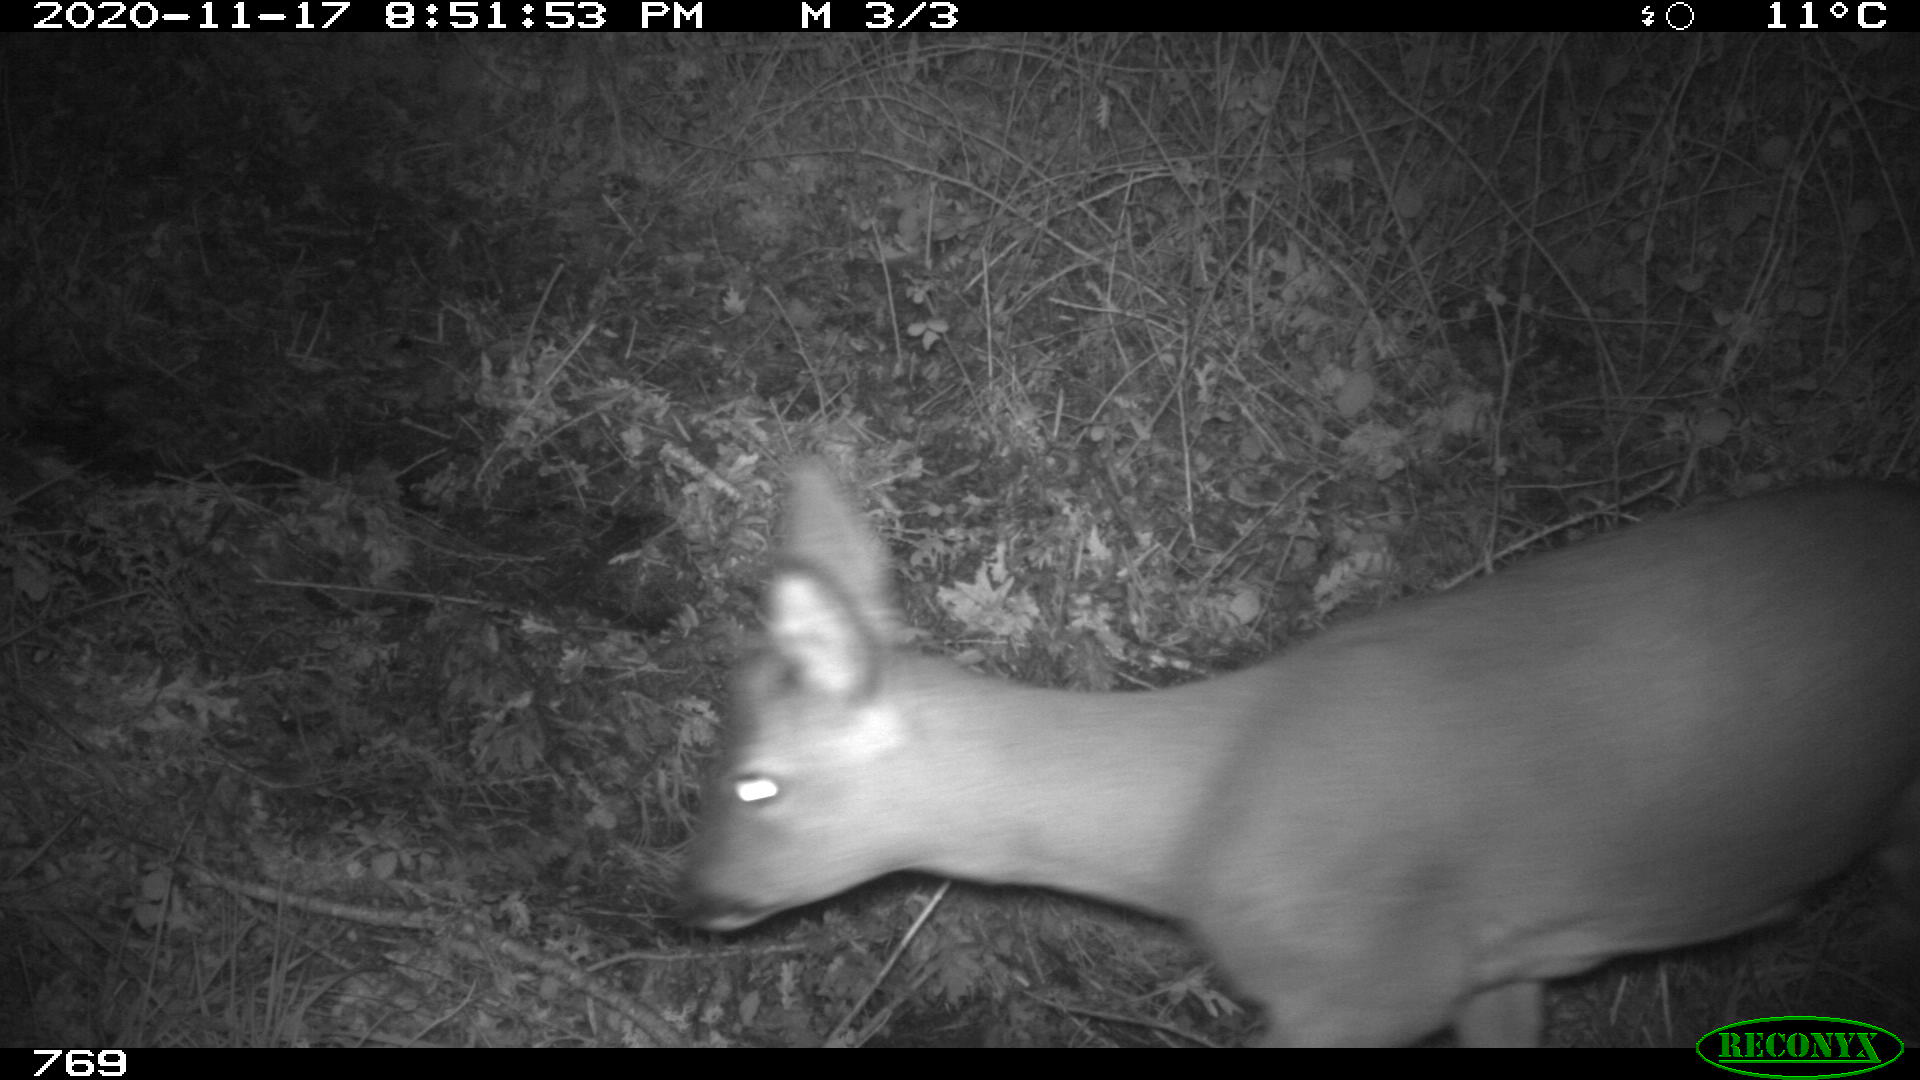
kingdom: Animalia
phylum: Chordata
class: Mammalia
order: Artiodactyla
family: Cervidae
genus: Capreolus
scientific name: Capreolus capreolus
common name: Western roe deer
